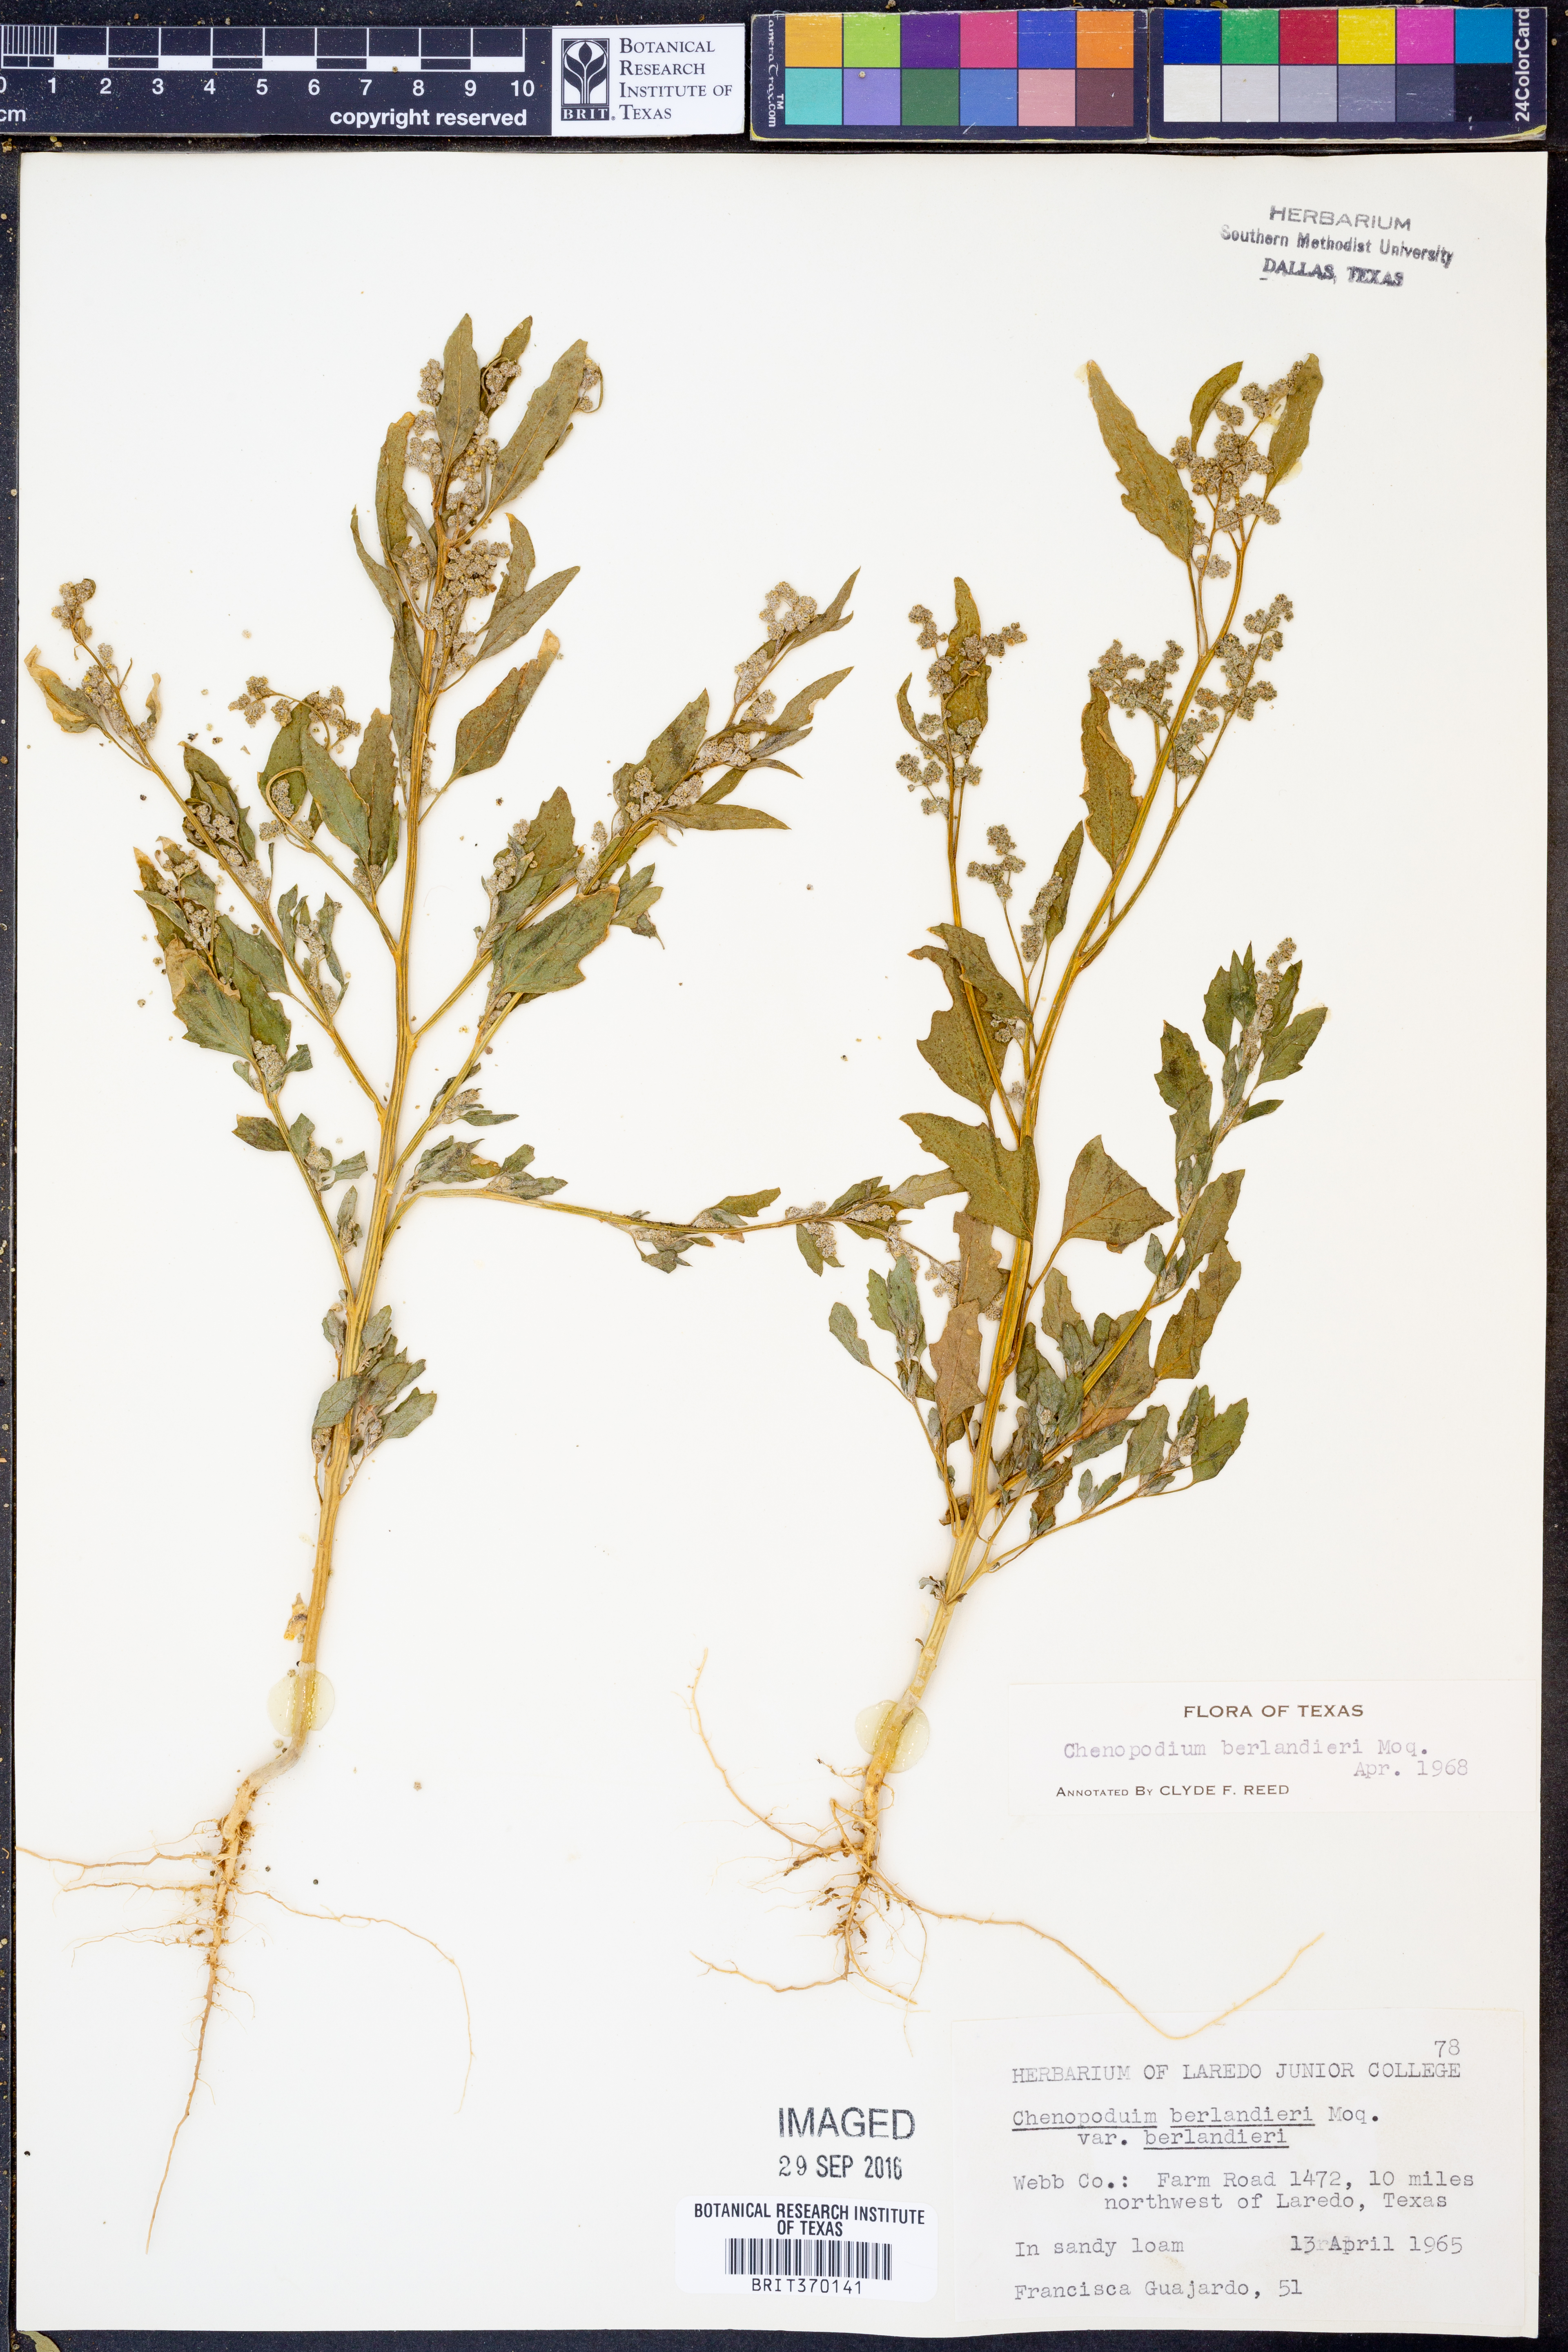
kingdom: Plantae
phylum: Tracheophyta
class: Magnoliopsida
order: Caryophyllales
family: Amaranthaceae
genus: Chenopodium
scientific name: Chenopodium berlandieri
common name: Pit-seed goosefoot
